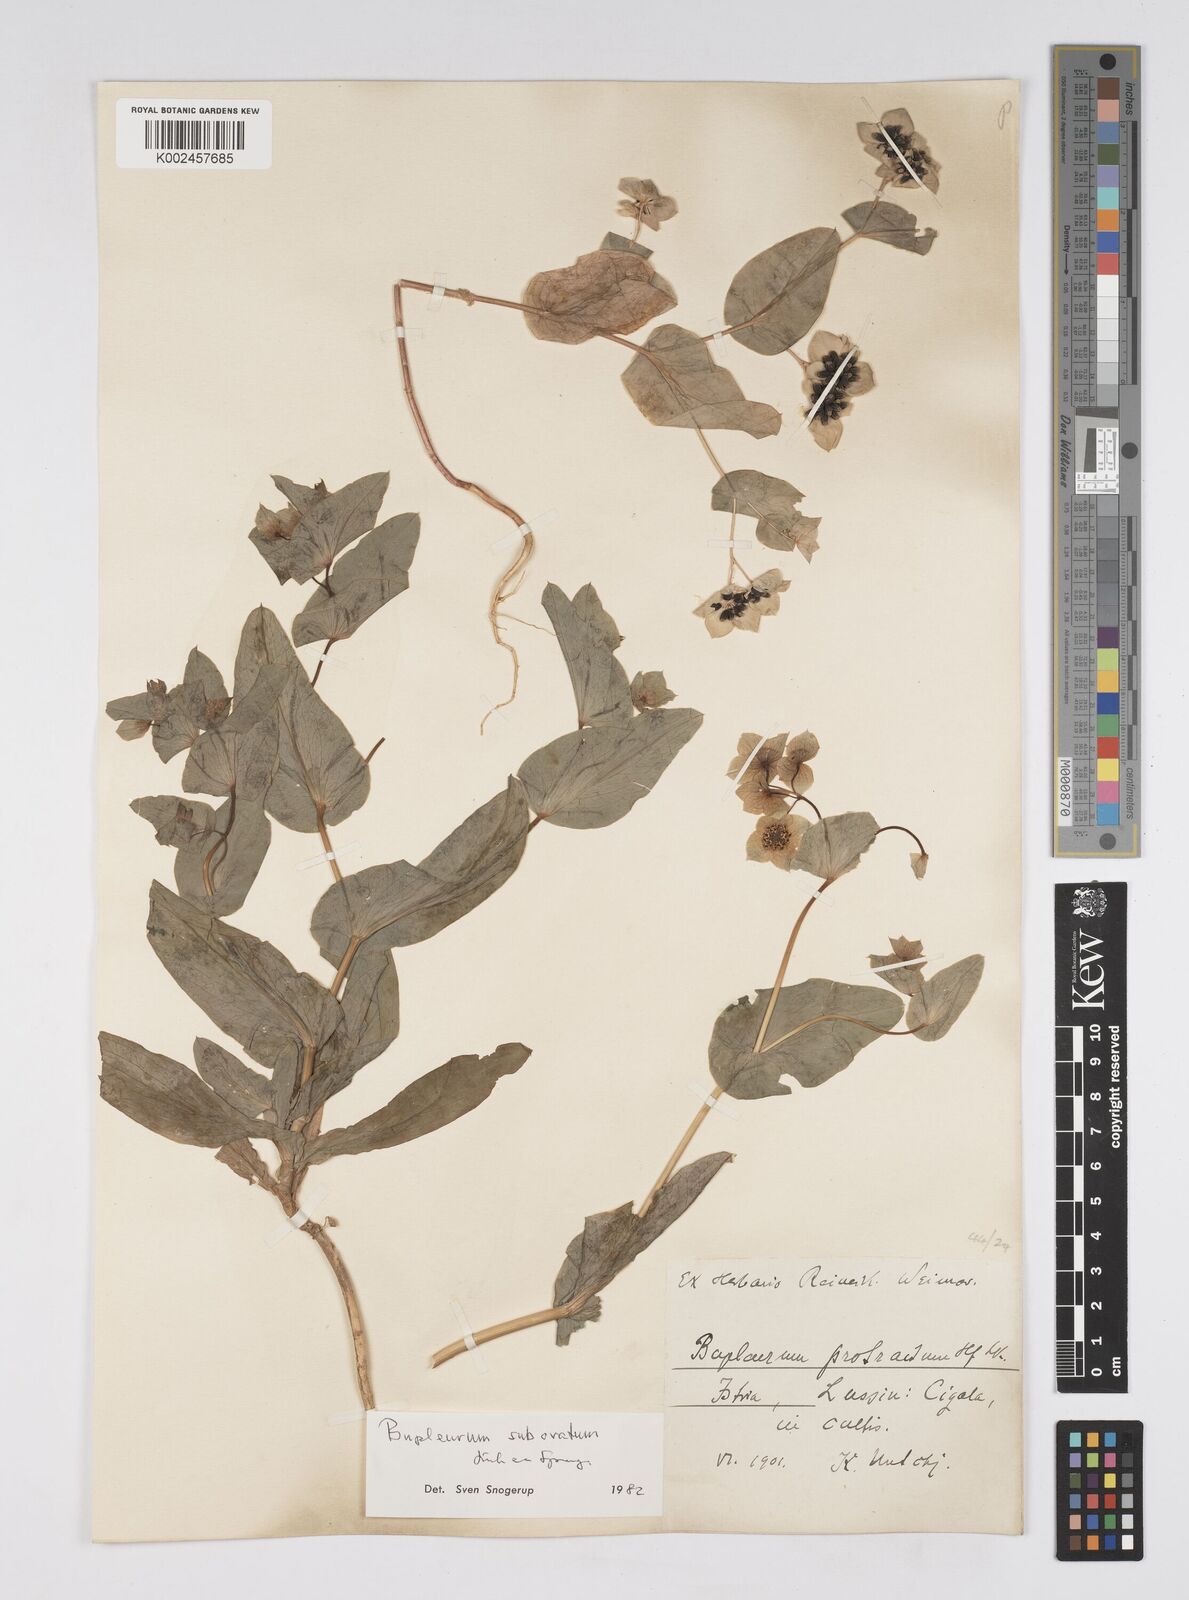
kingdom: Plantae
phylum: Tracheophyta
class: Magnoliopsida
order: Apiales
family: Apiaceae
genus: Bupleurum
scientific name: Bupleurum lancifolium
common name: False thorow-wax
